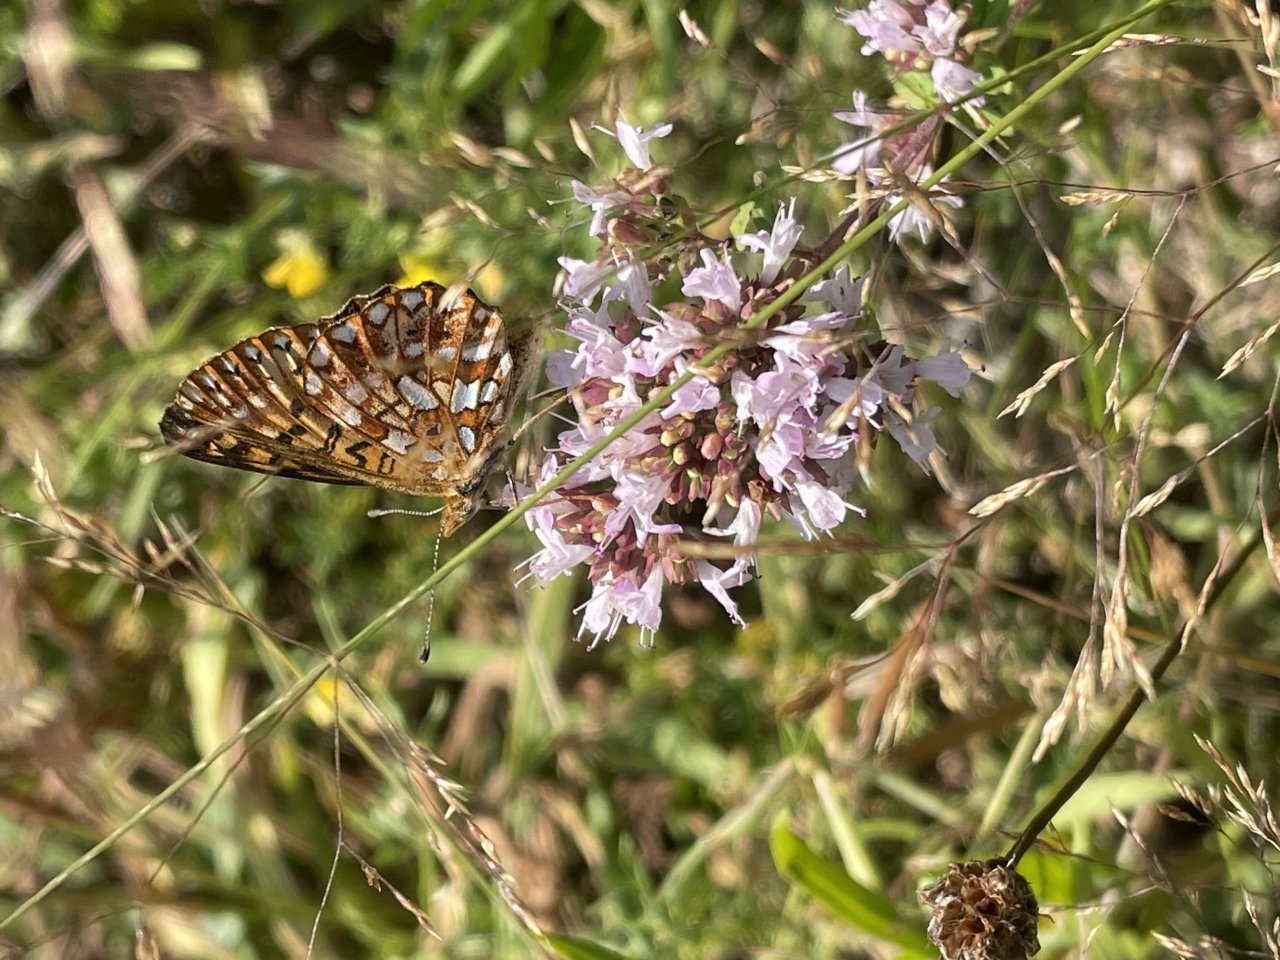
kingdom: Animalia
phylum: Arthropoda
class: Insecta
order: Lepidoptera
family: Nymphalidae
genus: Boloria
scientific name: Boloria selene
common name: Silver-bordered Fritillary
